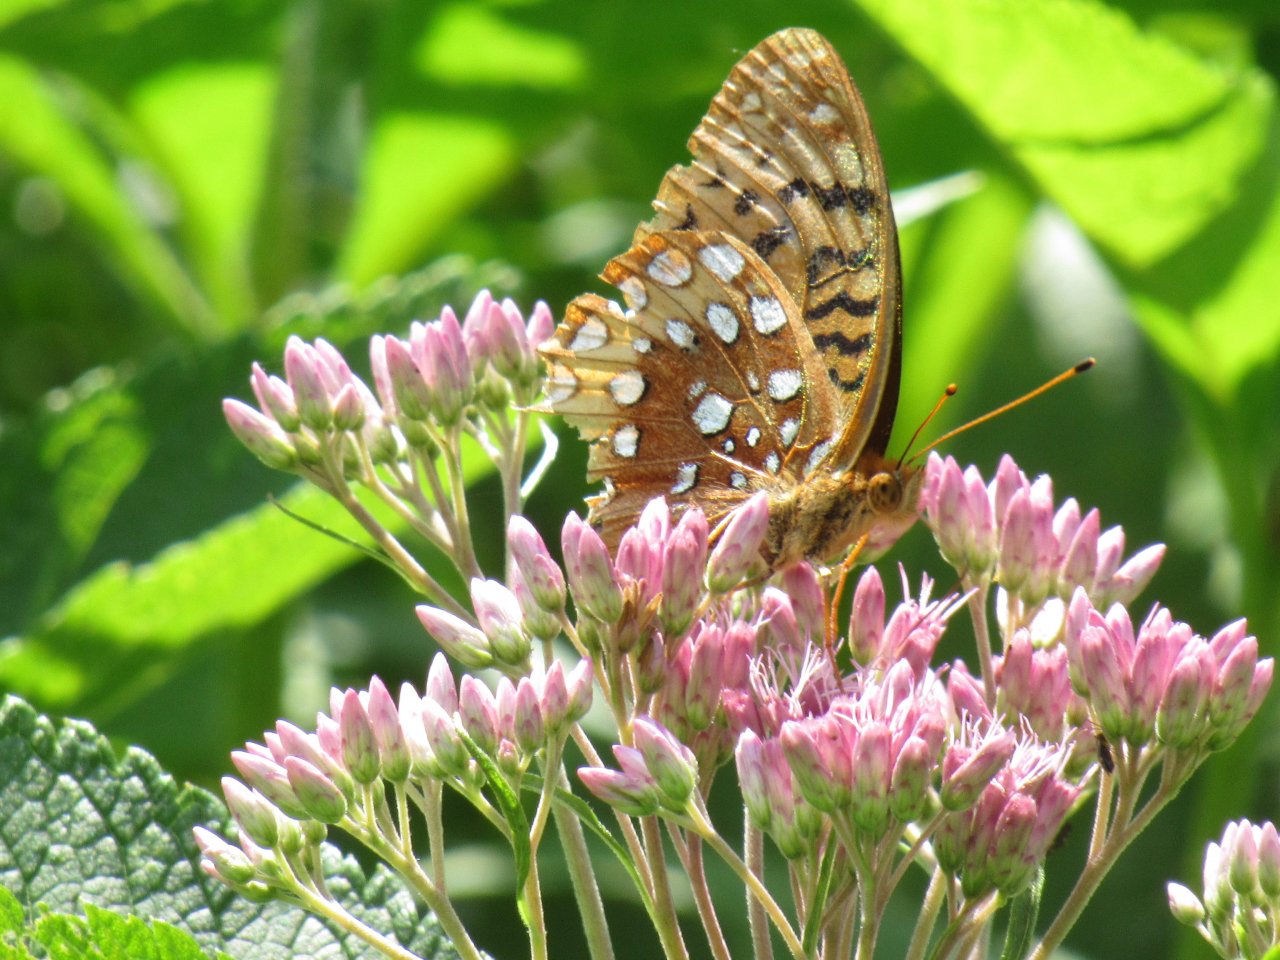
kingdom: Animalia
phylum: Arthropoda
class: Insecta
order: Lepidoptera
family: Nymphalidae
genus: Speyeria
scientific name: Speyeria cybele
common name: Great Spangled Fritillary
